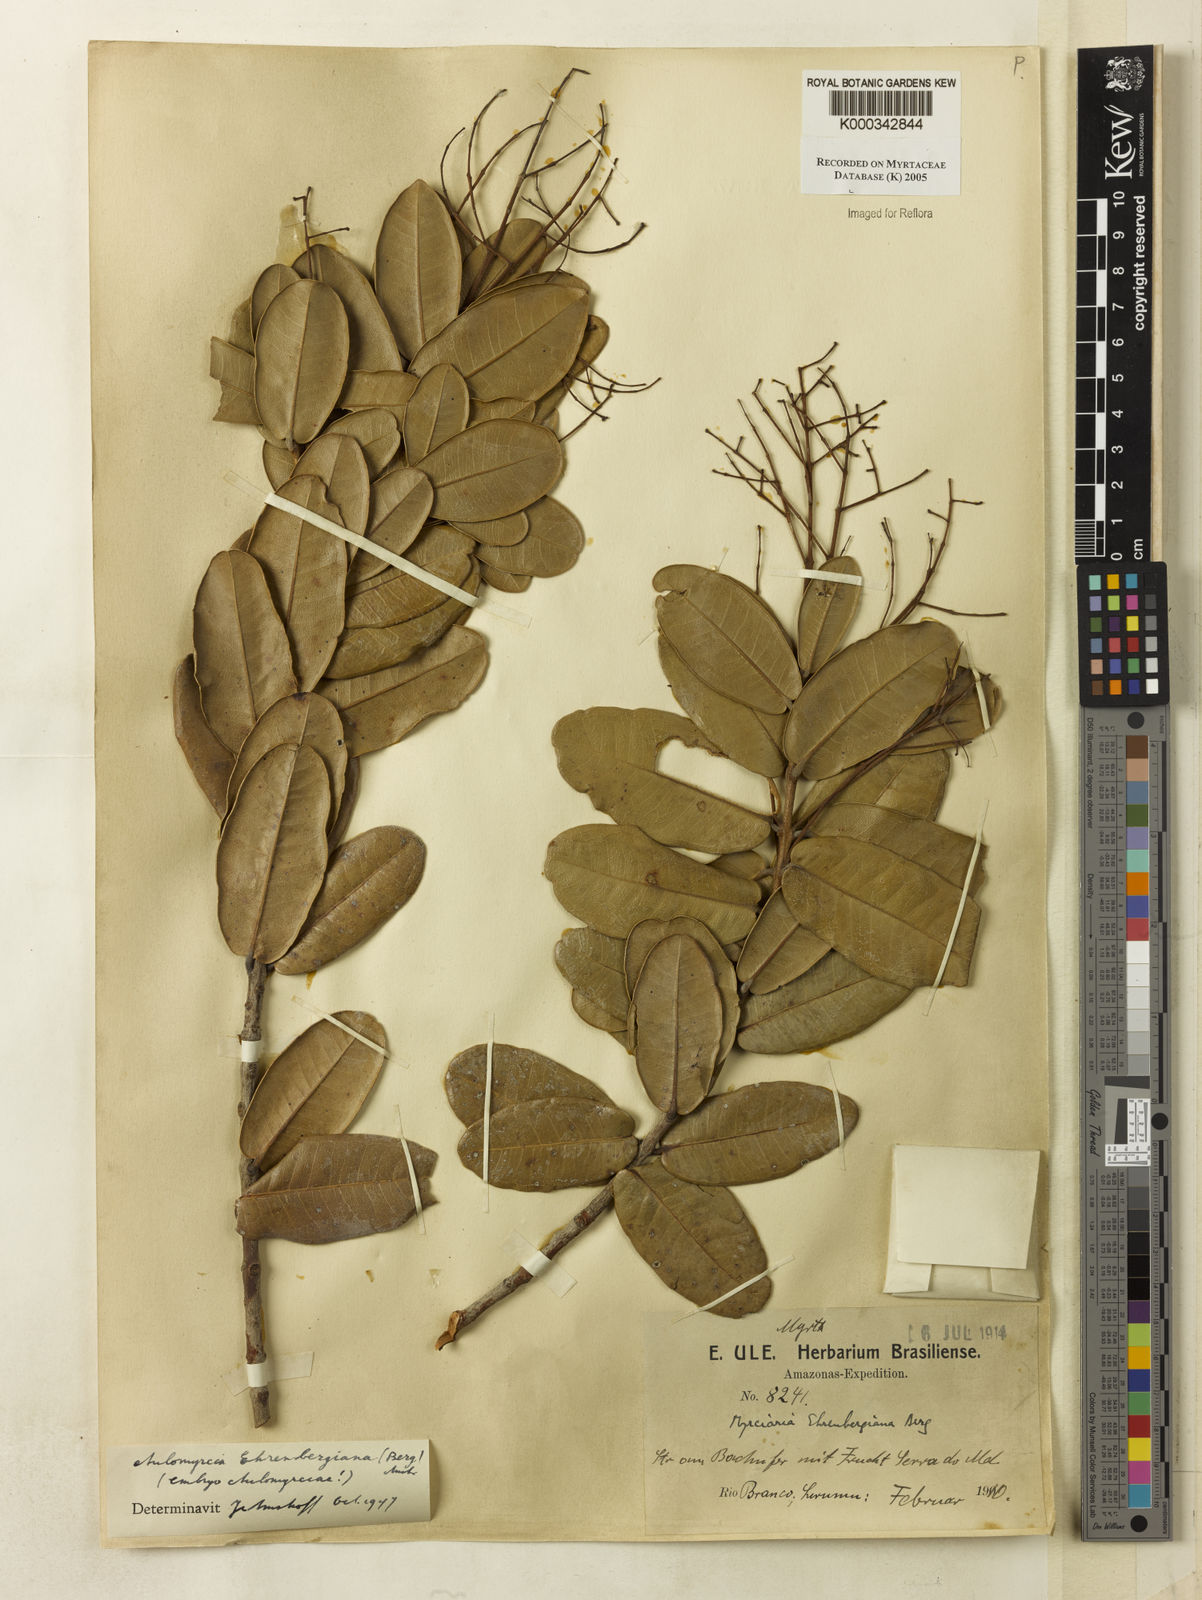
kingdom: Plantae
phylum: Tracheophyta
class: Magnoliopsida
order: Myrtales
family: Myrtaceae
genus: Myrcia
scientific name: Myrcia ehrenbergiana
